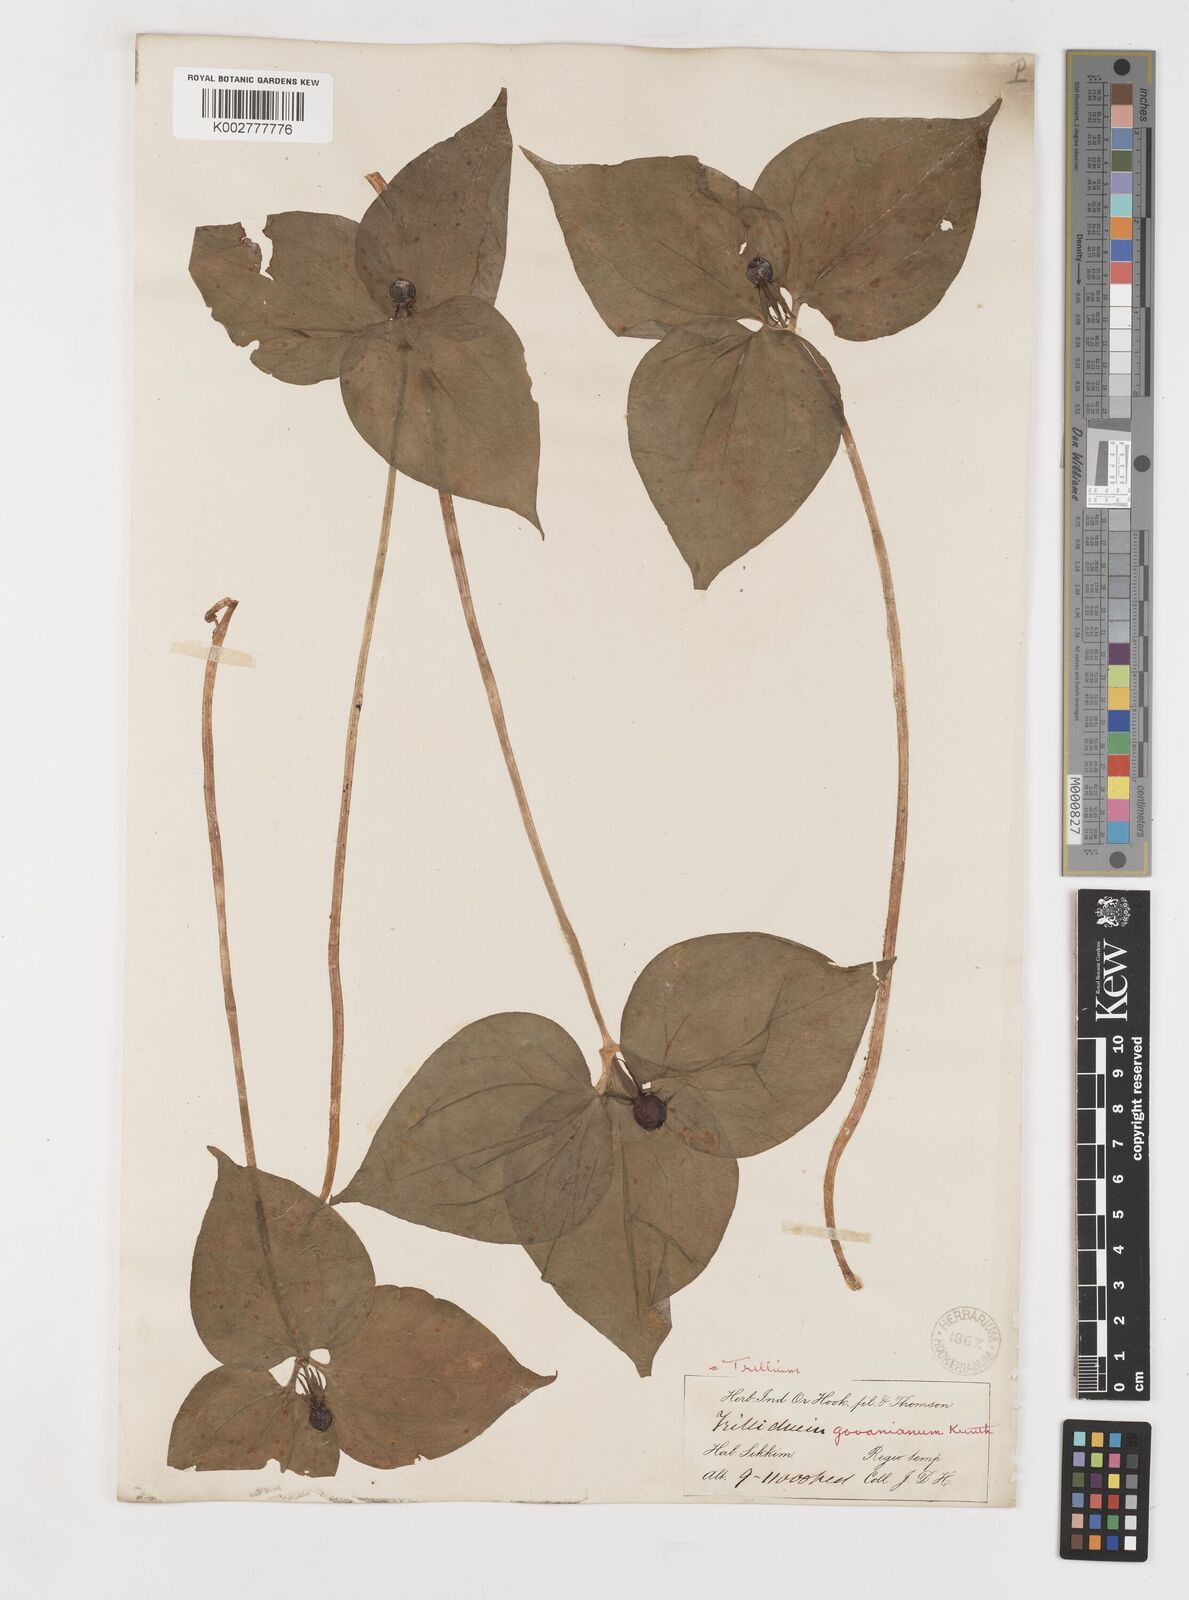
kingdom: Plantae
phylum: Tracheophyta
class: Liliopsida
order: Liliales
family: Melanthiaceae
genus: Trillium
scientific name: Trillium govanianum
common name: Himalayan trillium
